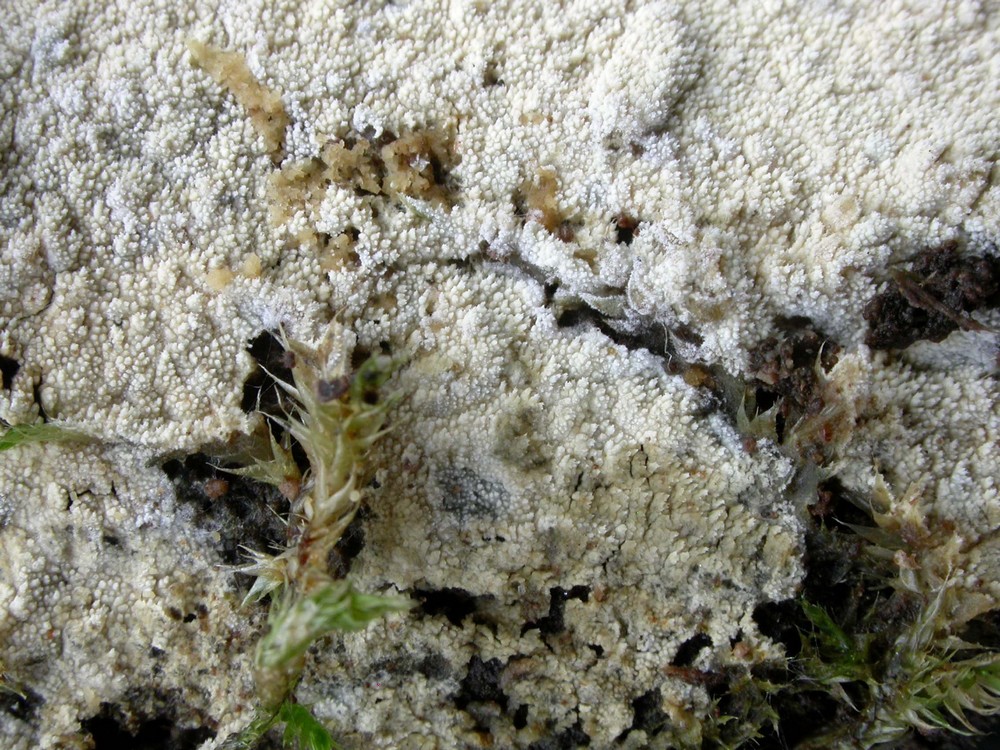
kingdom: Fungi
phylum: Basidiomycota
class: Agaricomycetes
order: Hymenochaetales
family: Schizoporaceae
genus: Xylodon
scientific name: Xylodon nesporii
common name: fintandet tandsvamp
